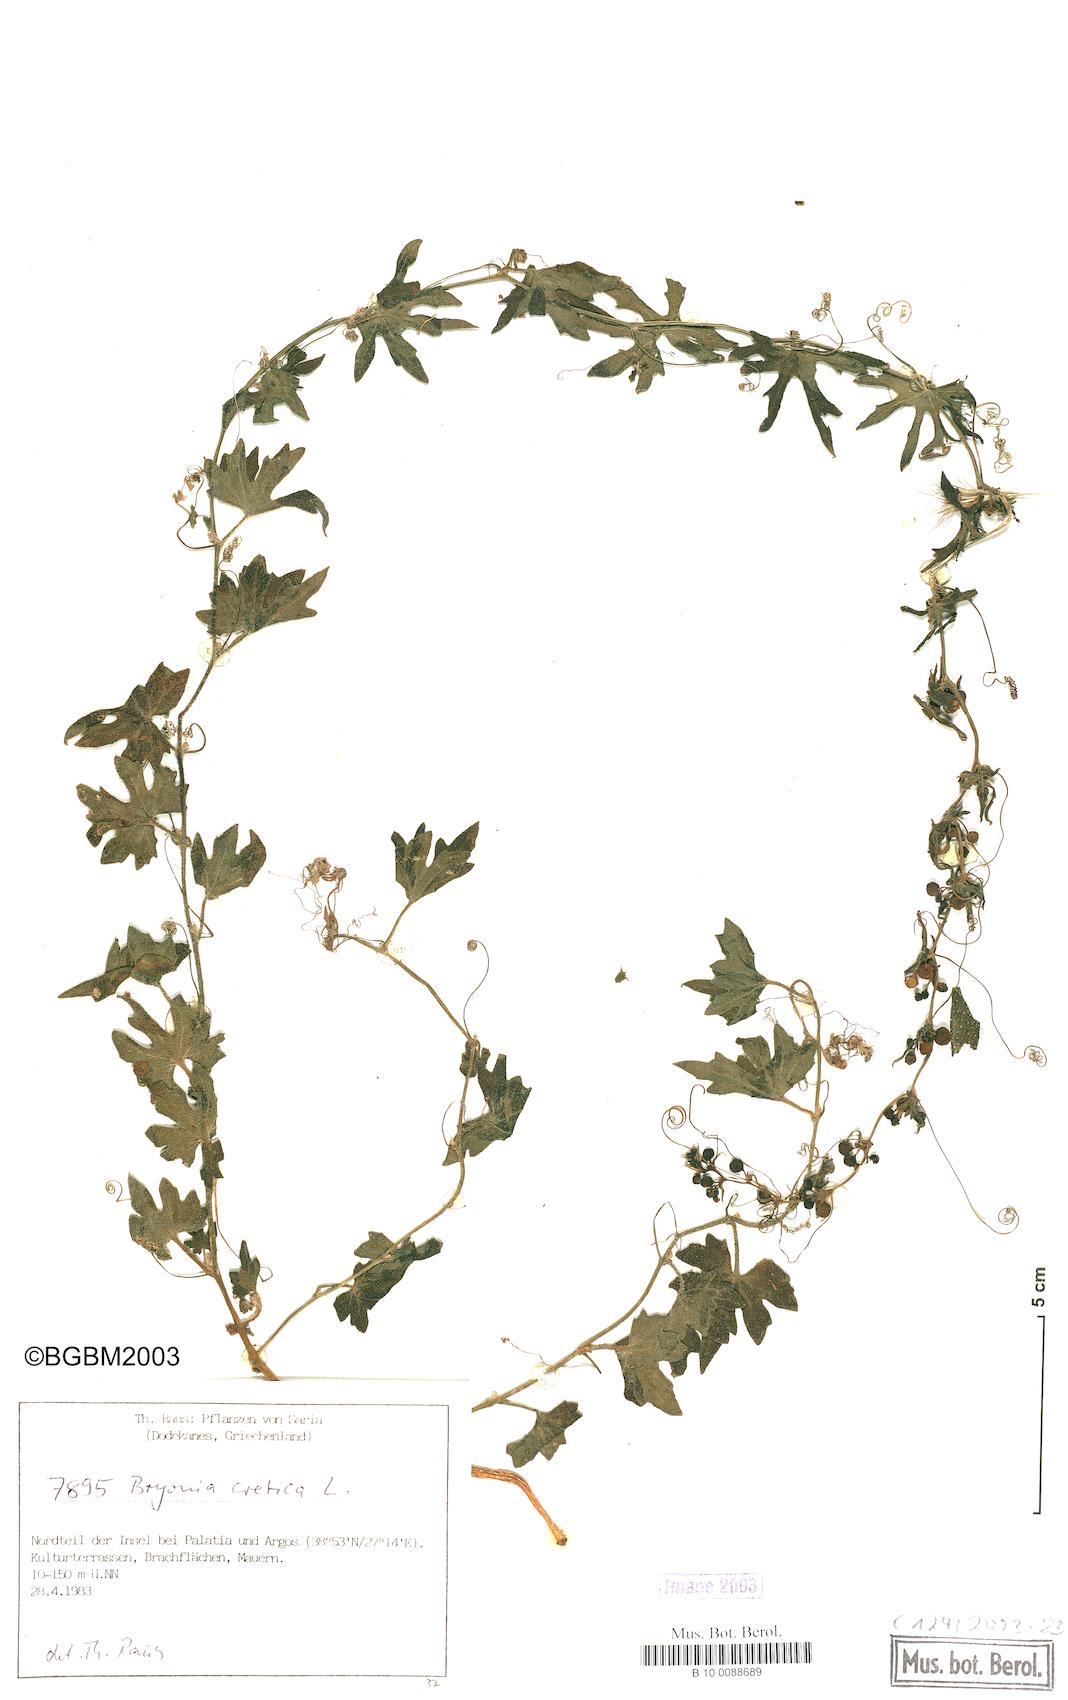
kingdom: Plantae
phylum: Tracheophyta
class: Magnoliopsida
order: Cucurbitales
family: Cucurbitaceae
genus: Bryonia
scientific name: Bryonia cretica
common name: Cretan bryony
